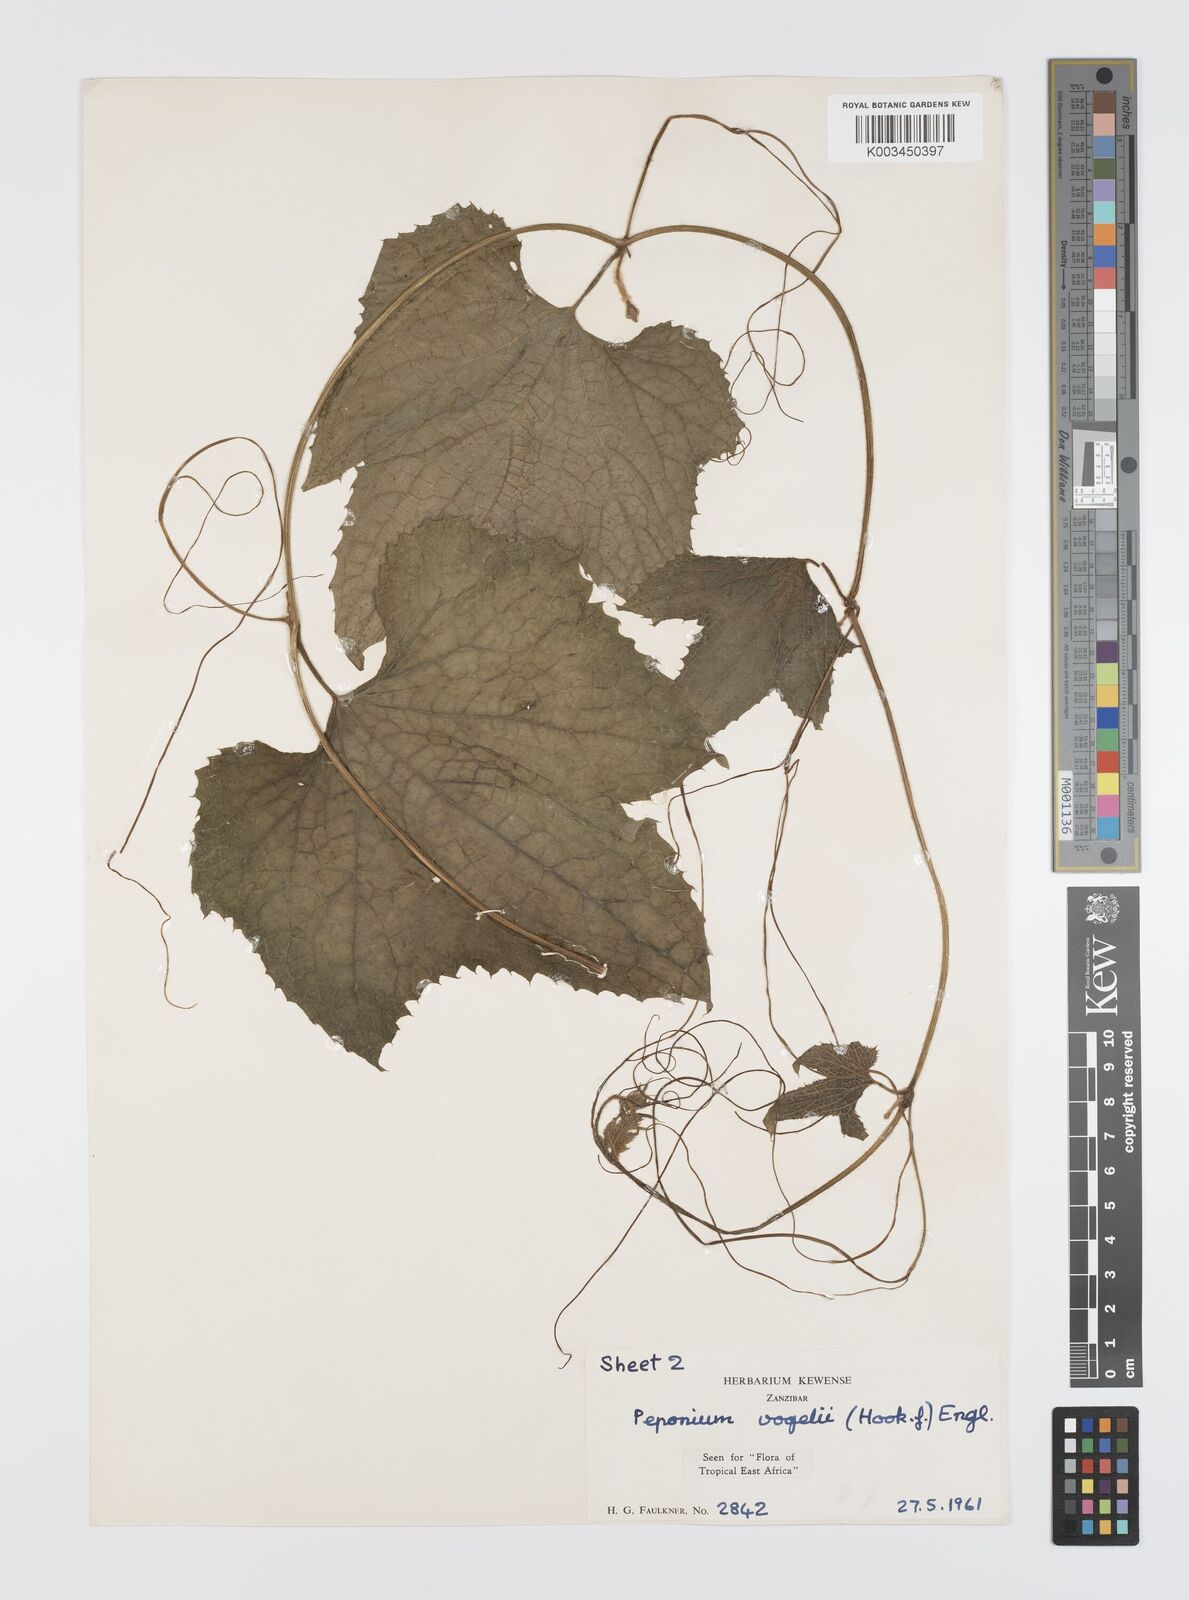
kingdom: Plantae
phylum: Tracheophyta
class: Magnoliopsida
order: Cucurbitales
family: Cucurbitaceae
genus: Peponium
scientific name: Peponium vogelii
